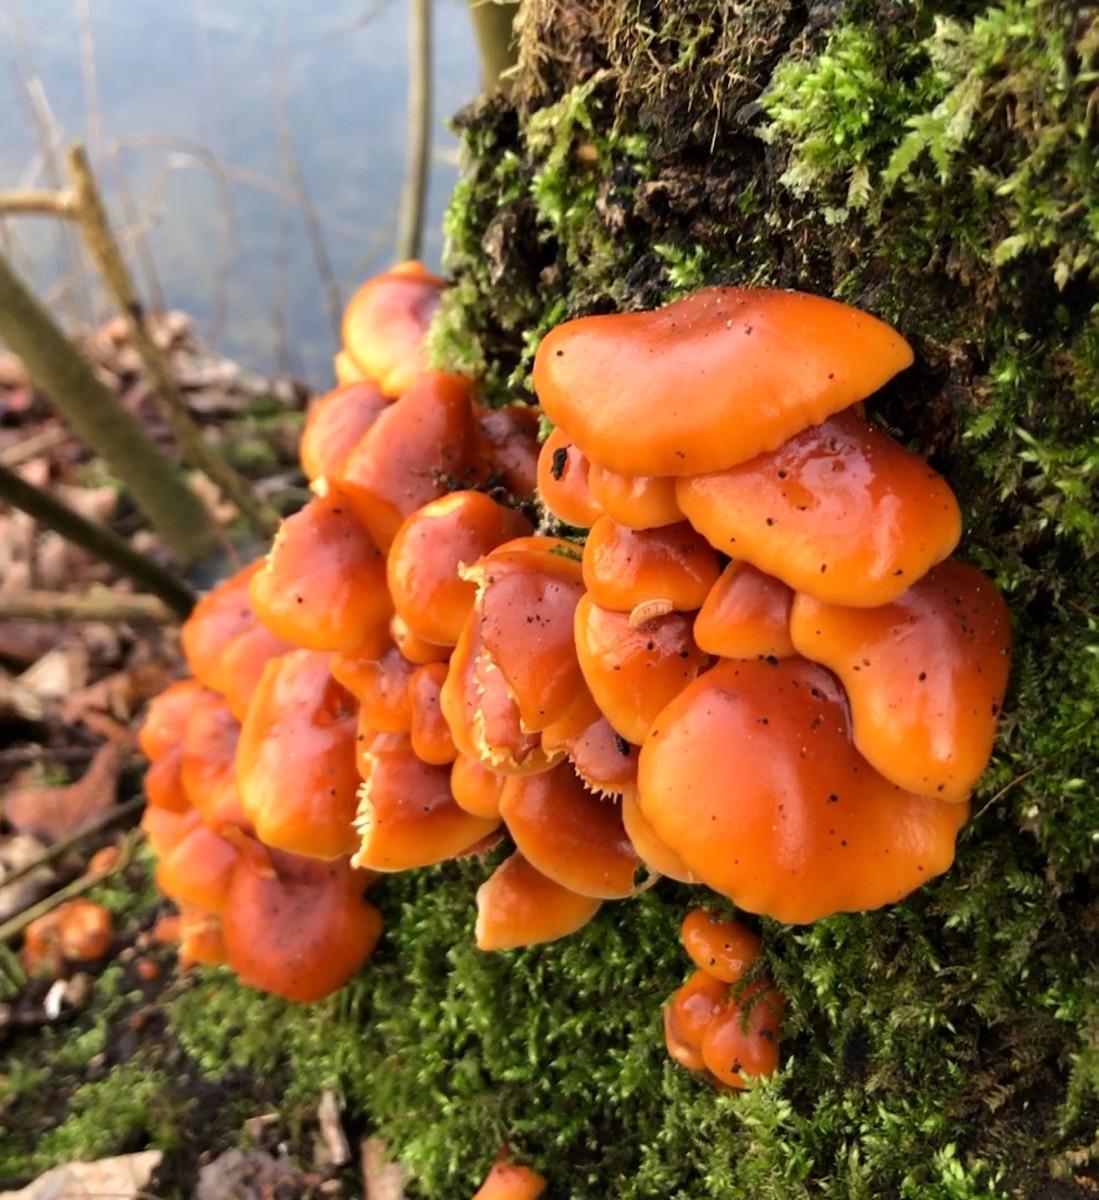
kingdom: Fungi
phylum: Basidiomycota
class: Agaricomycetes
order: Agaricales
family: Physalacriaceae
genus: Flammulina
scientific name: Flammulina velutipes
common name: gul fløjlsfod
